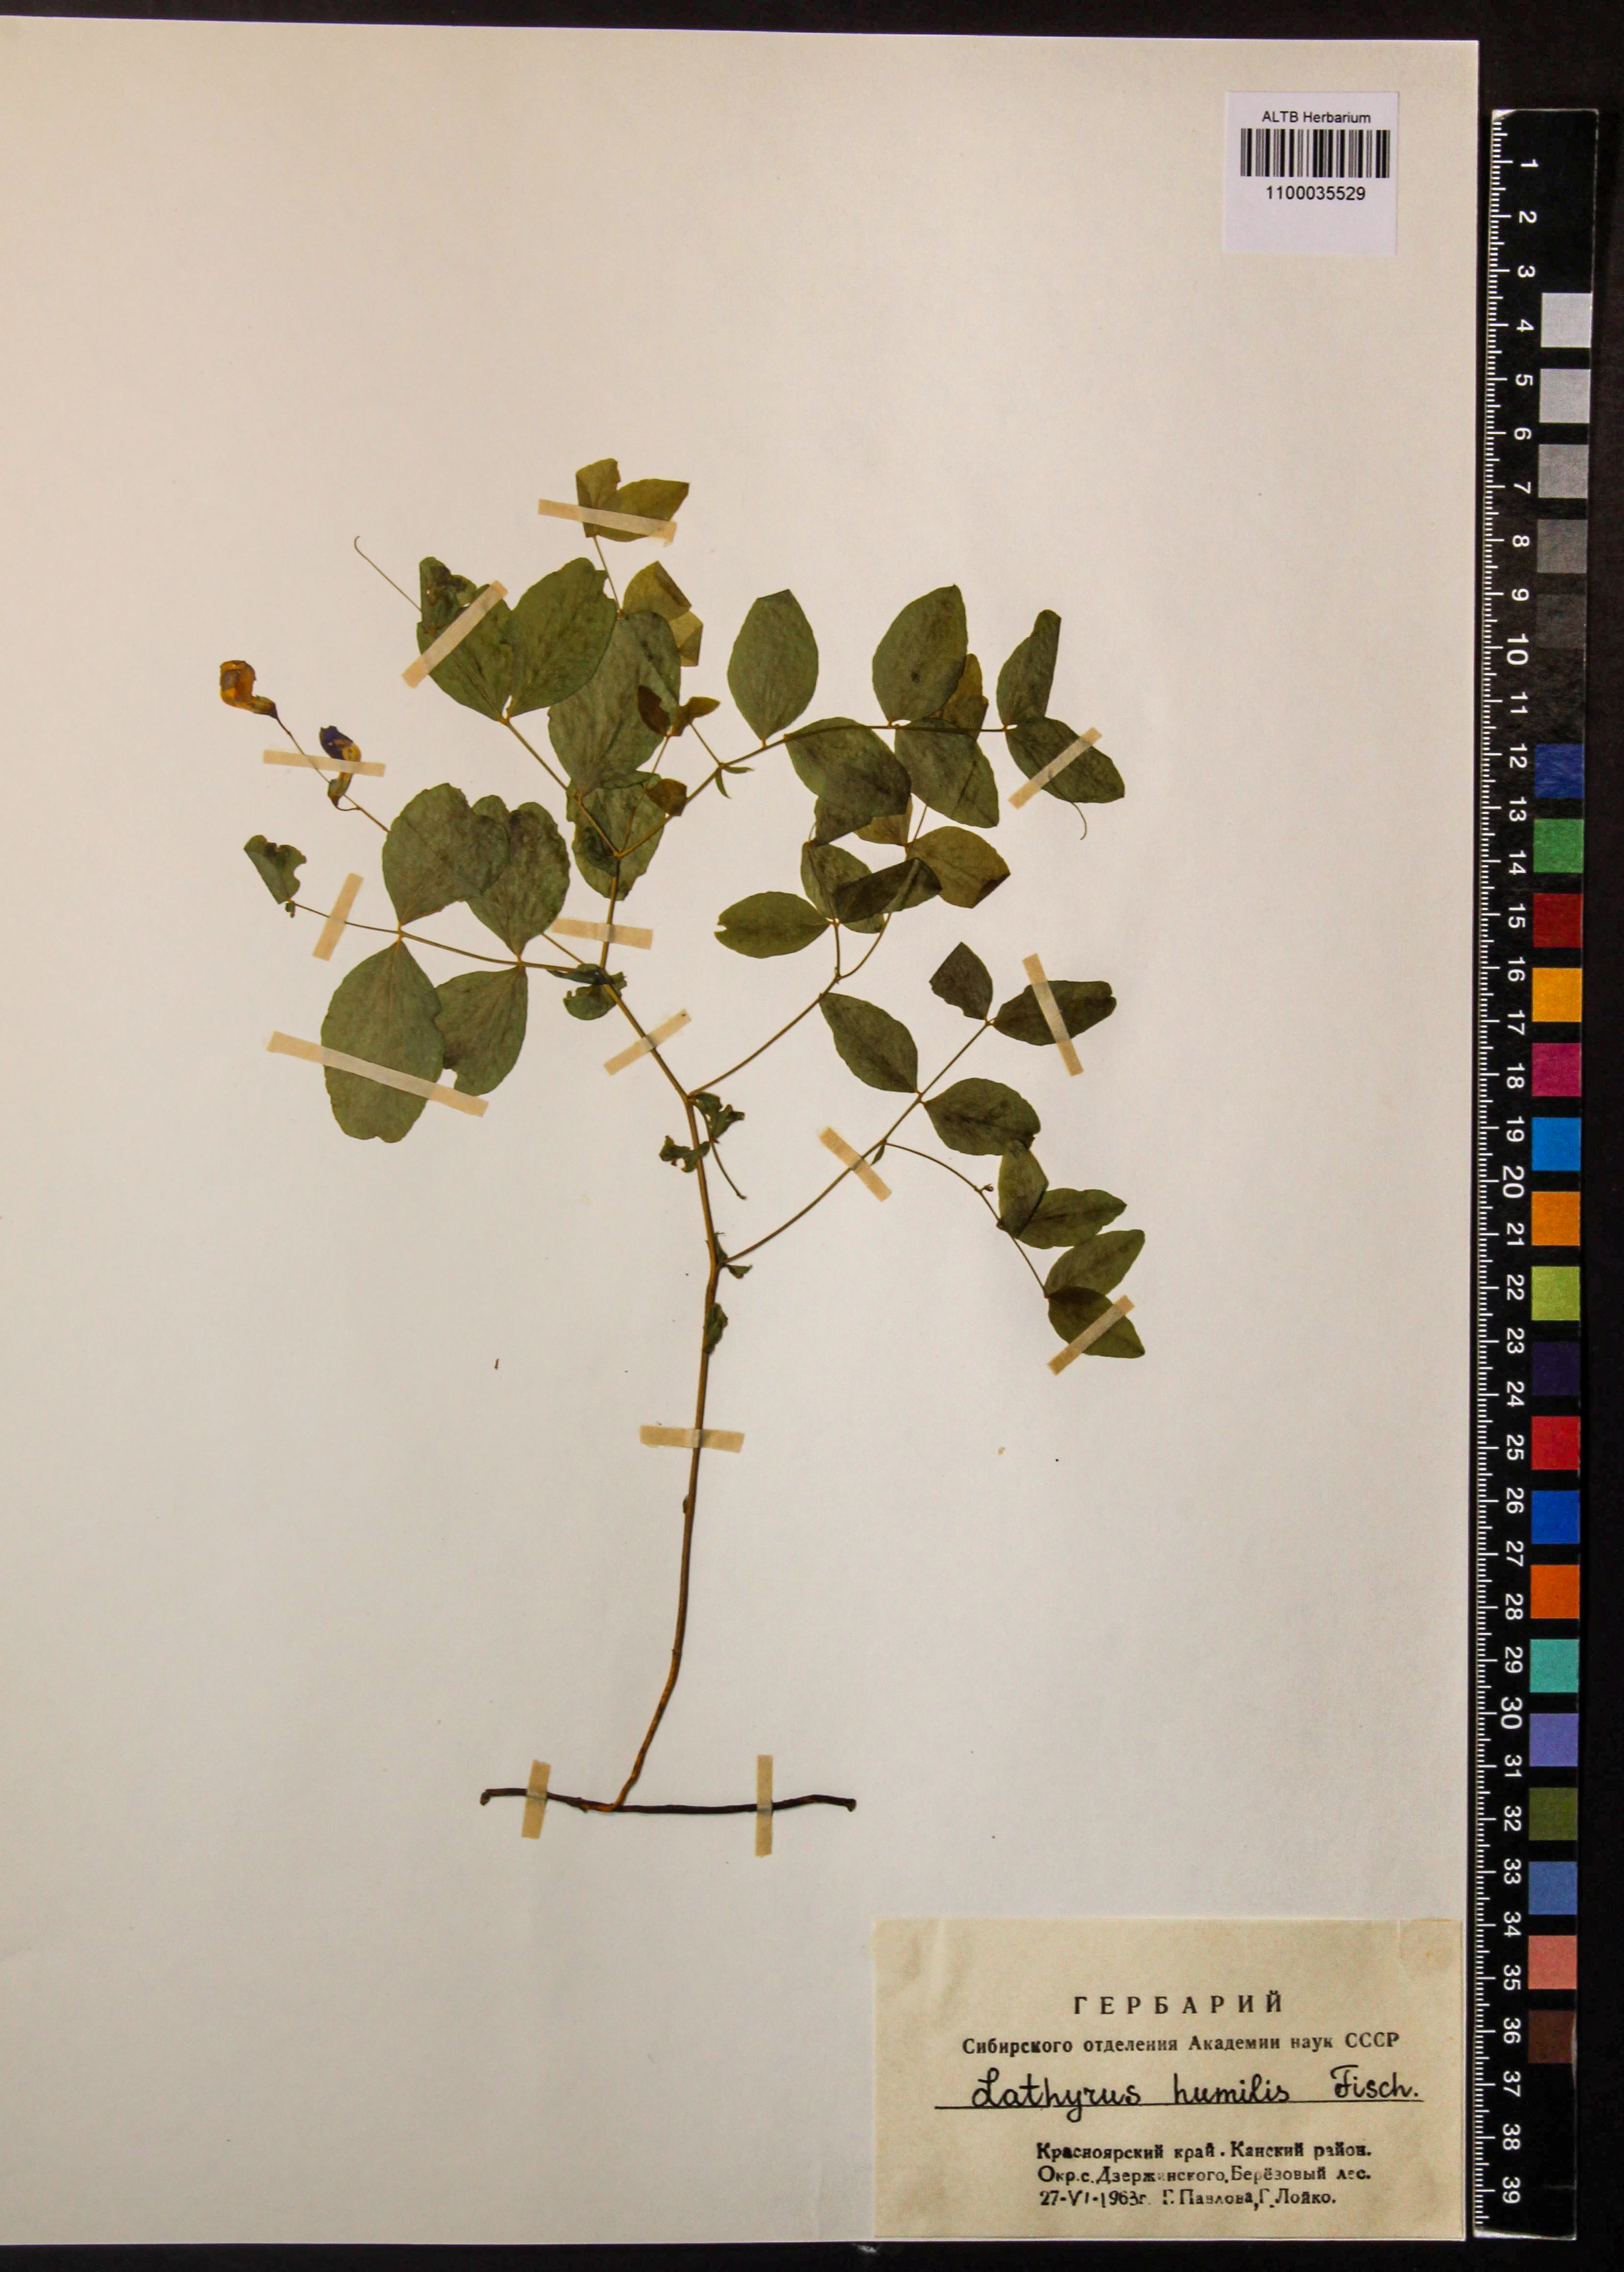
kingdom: Plantae
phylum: Tracheophyta
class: Magnoliopsida
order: Fabales
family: Fabaceae
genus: Lathyrus
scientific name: Lathyrus humilis
